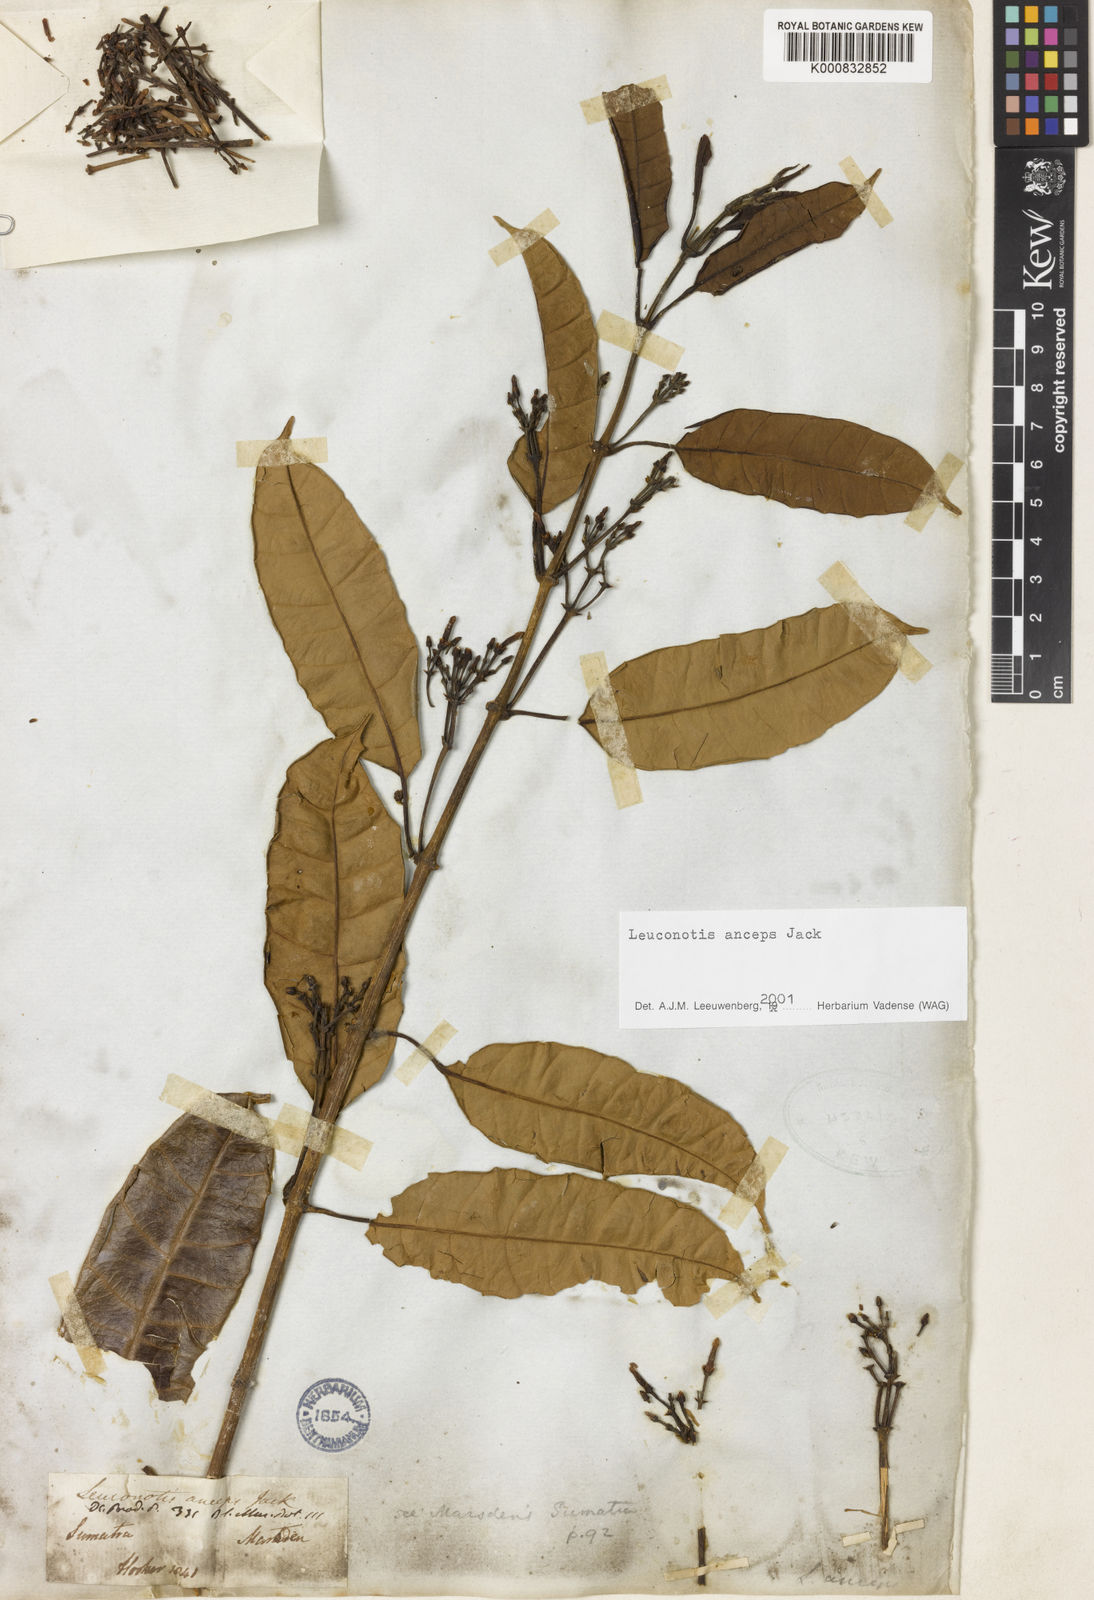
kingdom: Plantae
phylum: Tracheophyta
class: Magnoliopsida
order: Gentianales
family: Apocynaceae
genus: Leuconotis
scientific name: Leuconotis anceps
